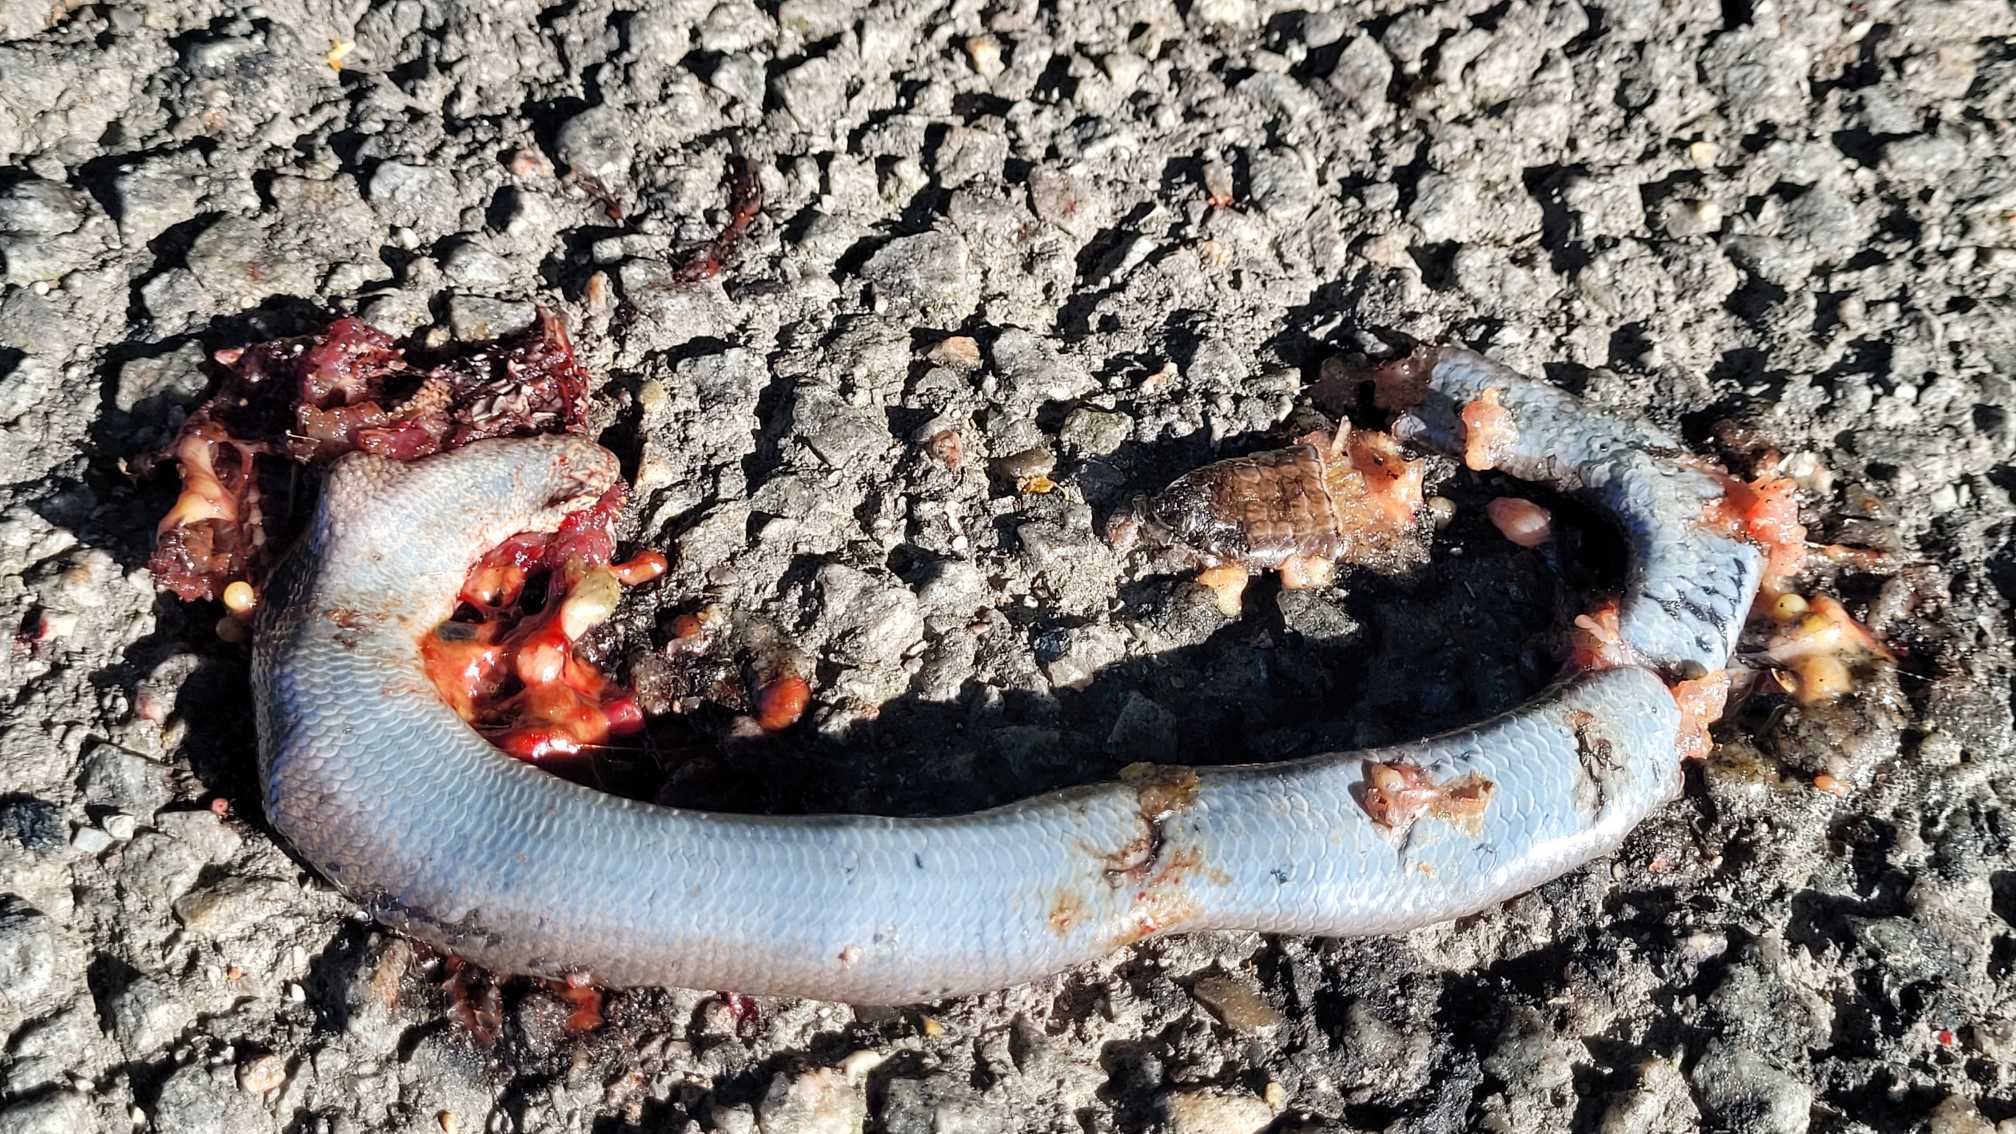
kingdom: Animalia
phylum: Chordata
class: Squamata
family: Anguidae
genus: Anguis
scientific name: Anguis fragilis
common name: Stålorm
